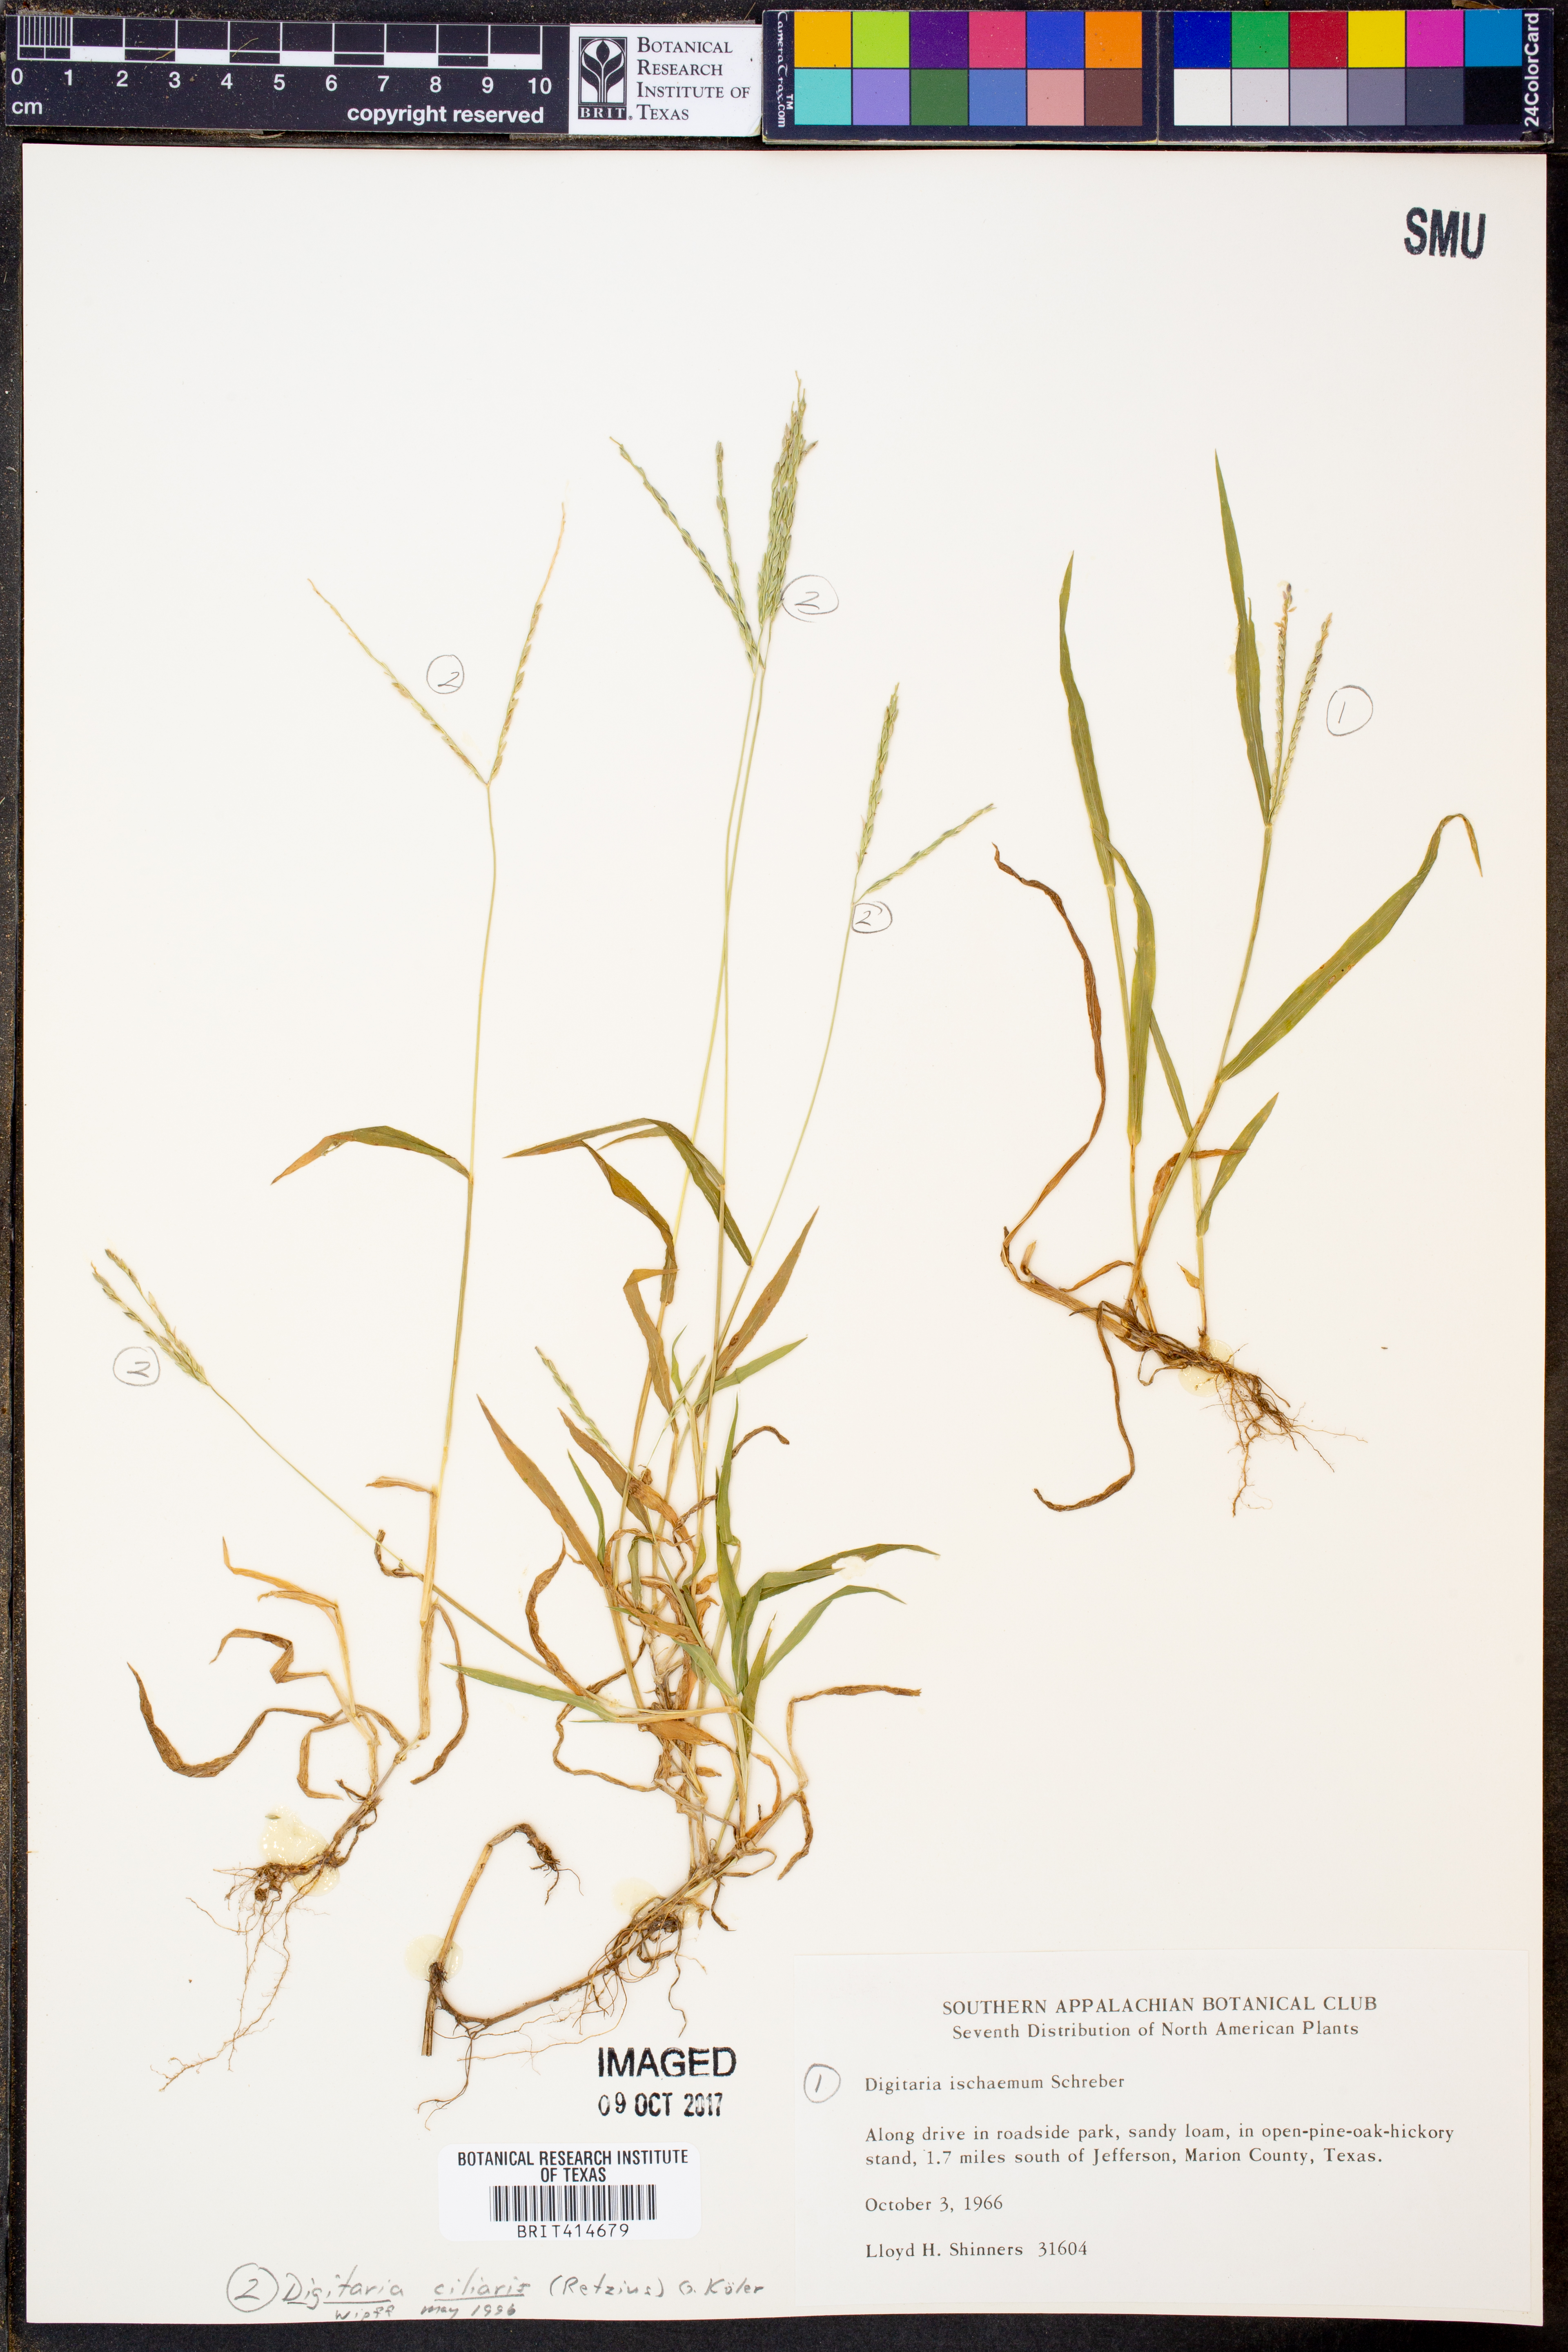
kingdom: Plantae
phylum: Tracheophyta
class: Liliopsida
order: Poales
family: Poaceae
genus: Digitaria
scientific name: Digitaria ciliaris
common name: Tropical finger-grass
